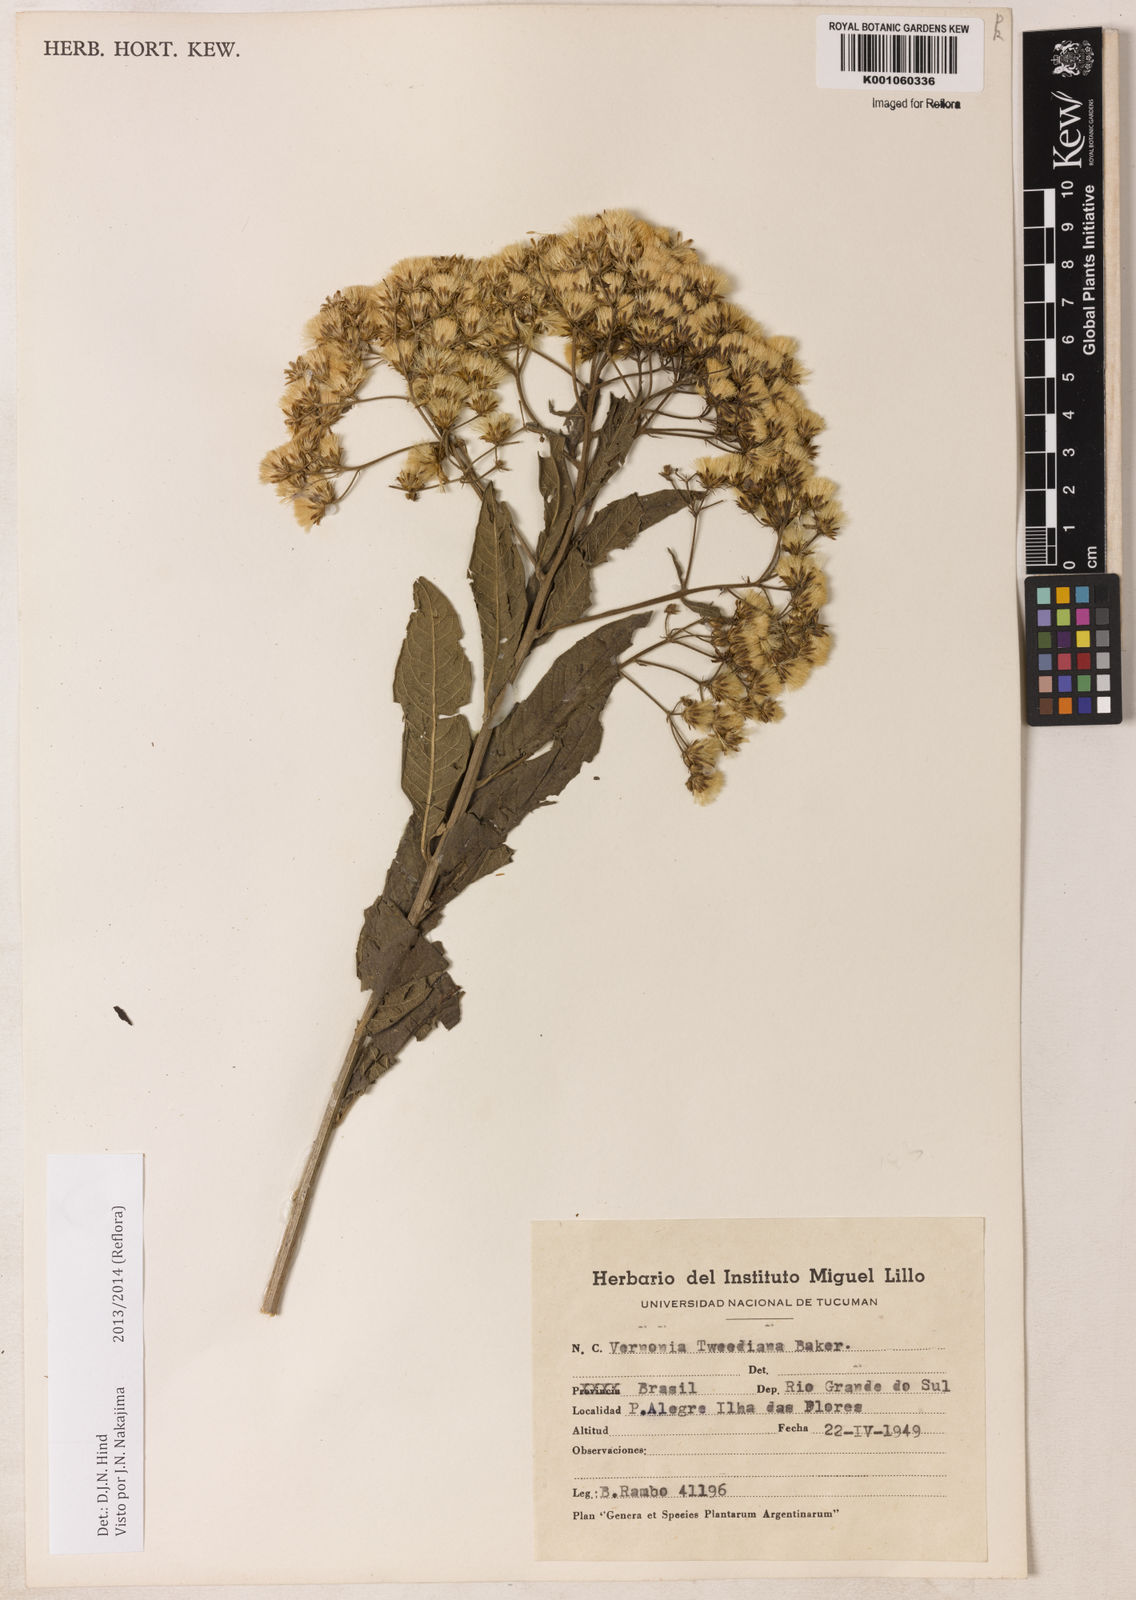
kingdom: Plantae
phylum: Tracheophyta
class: Magnoliopsida
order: Asterales
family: Asteraceae
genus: Vernonia
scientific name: Vernonia
